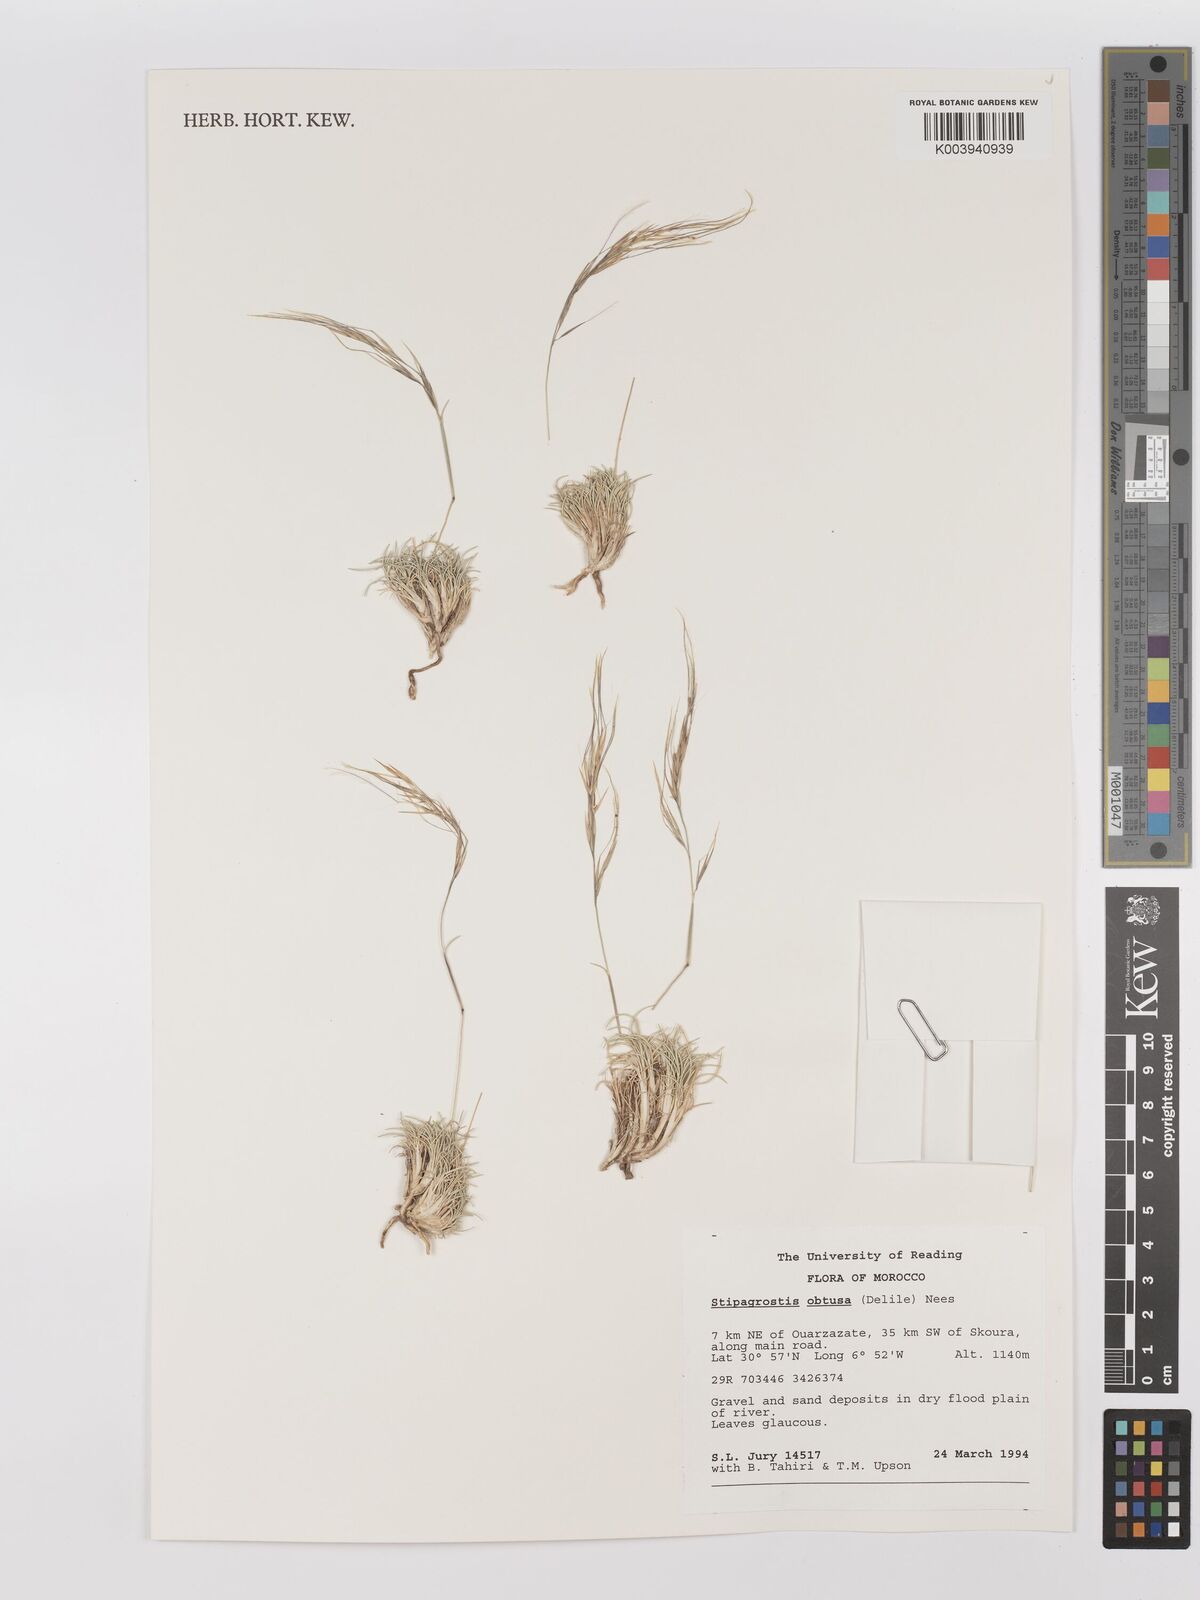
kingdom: Plantae
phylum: Tracheophyta
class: Liliopsida
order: Poales
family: Poaceae
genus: Stipagrostis
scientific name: Stipagrostis obtusa
